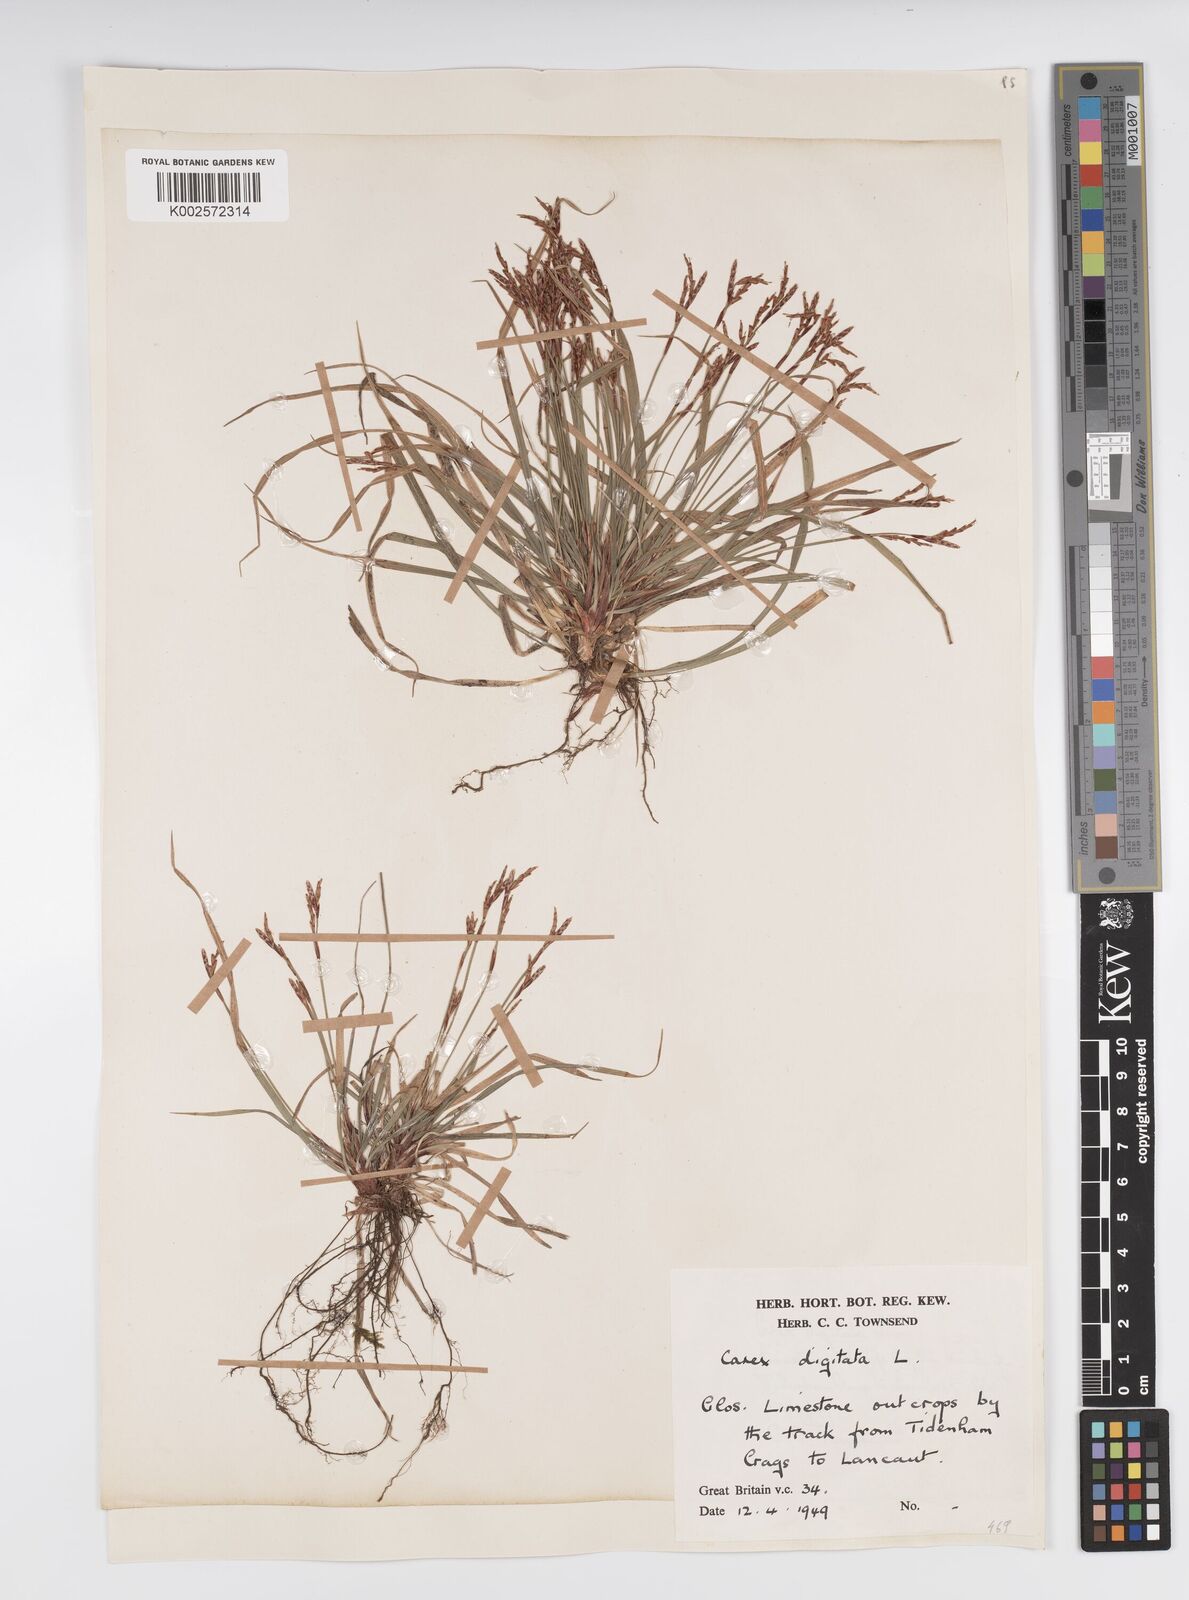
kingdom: Plantae
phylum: Tracheophyta
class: Liliopsida
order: Poales
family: Cyperaceae
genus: Carex
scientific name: Carex digitata
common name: Fingered sedge
